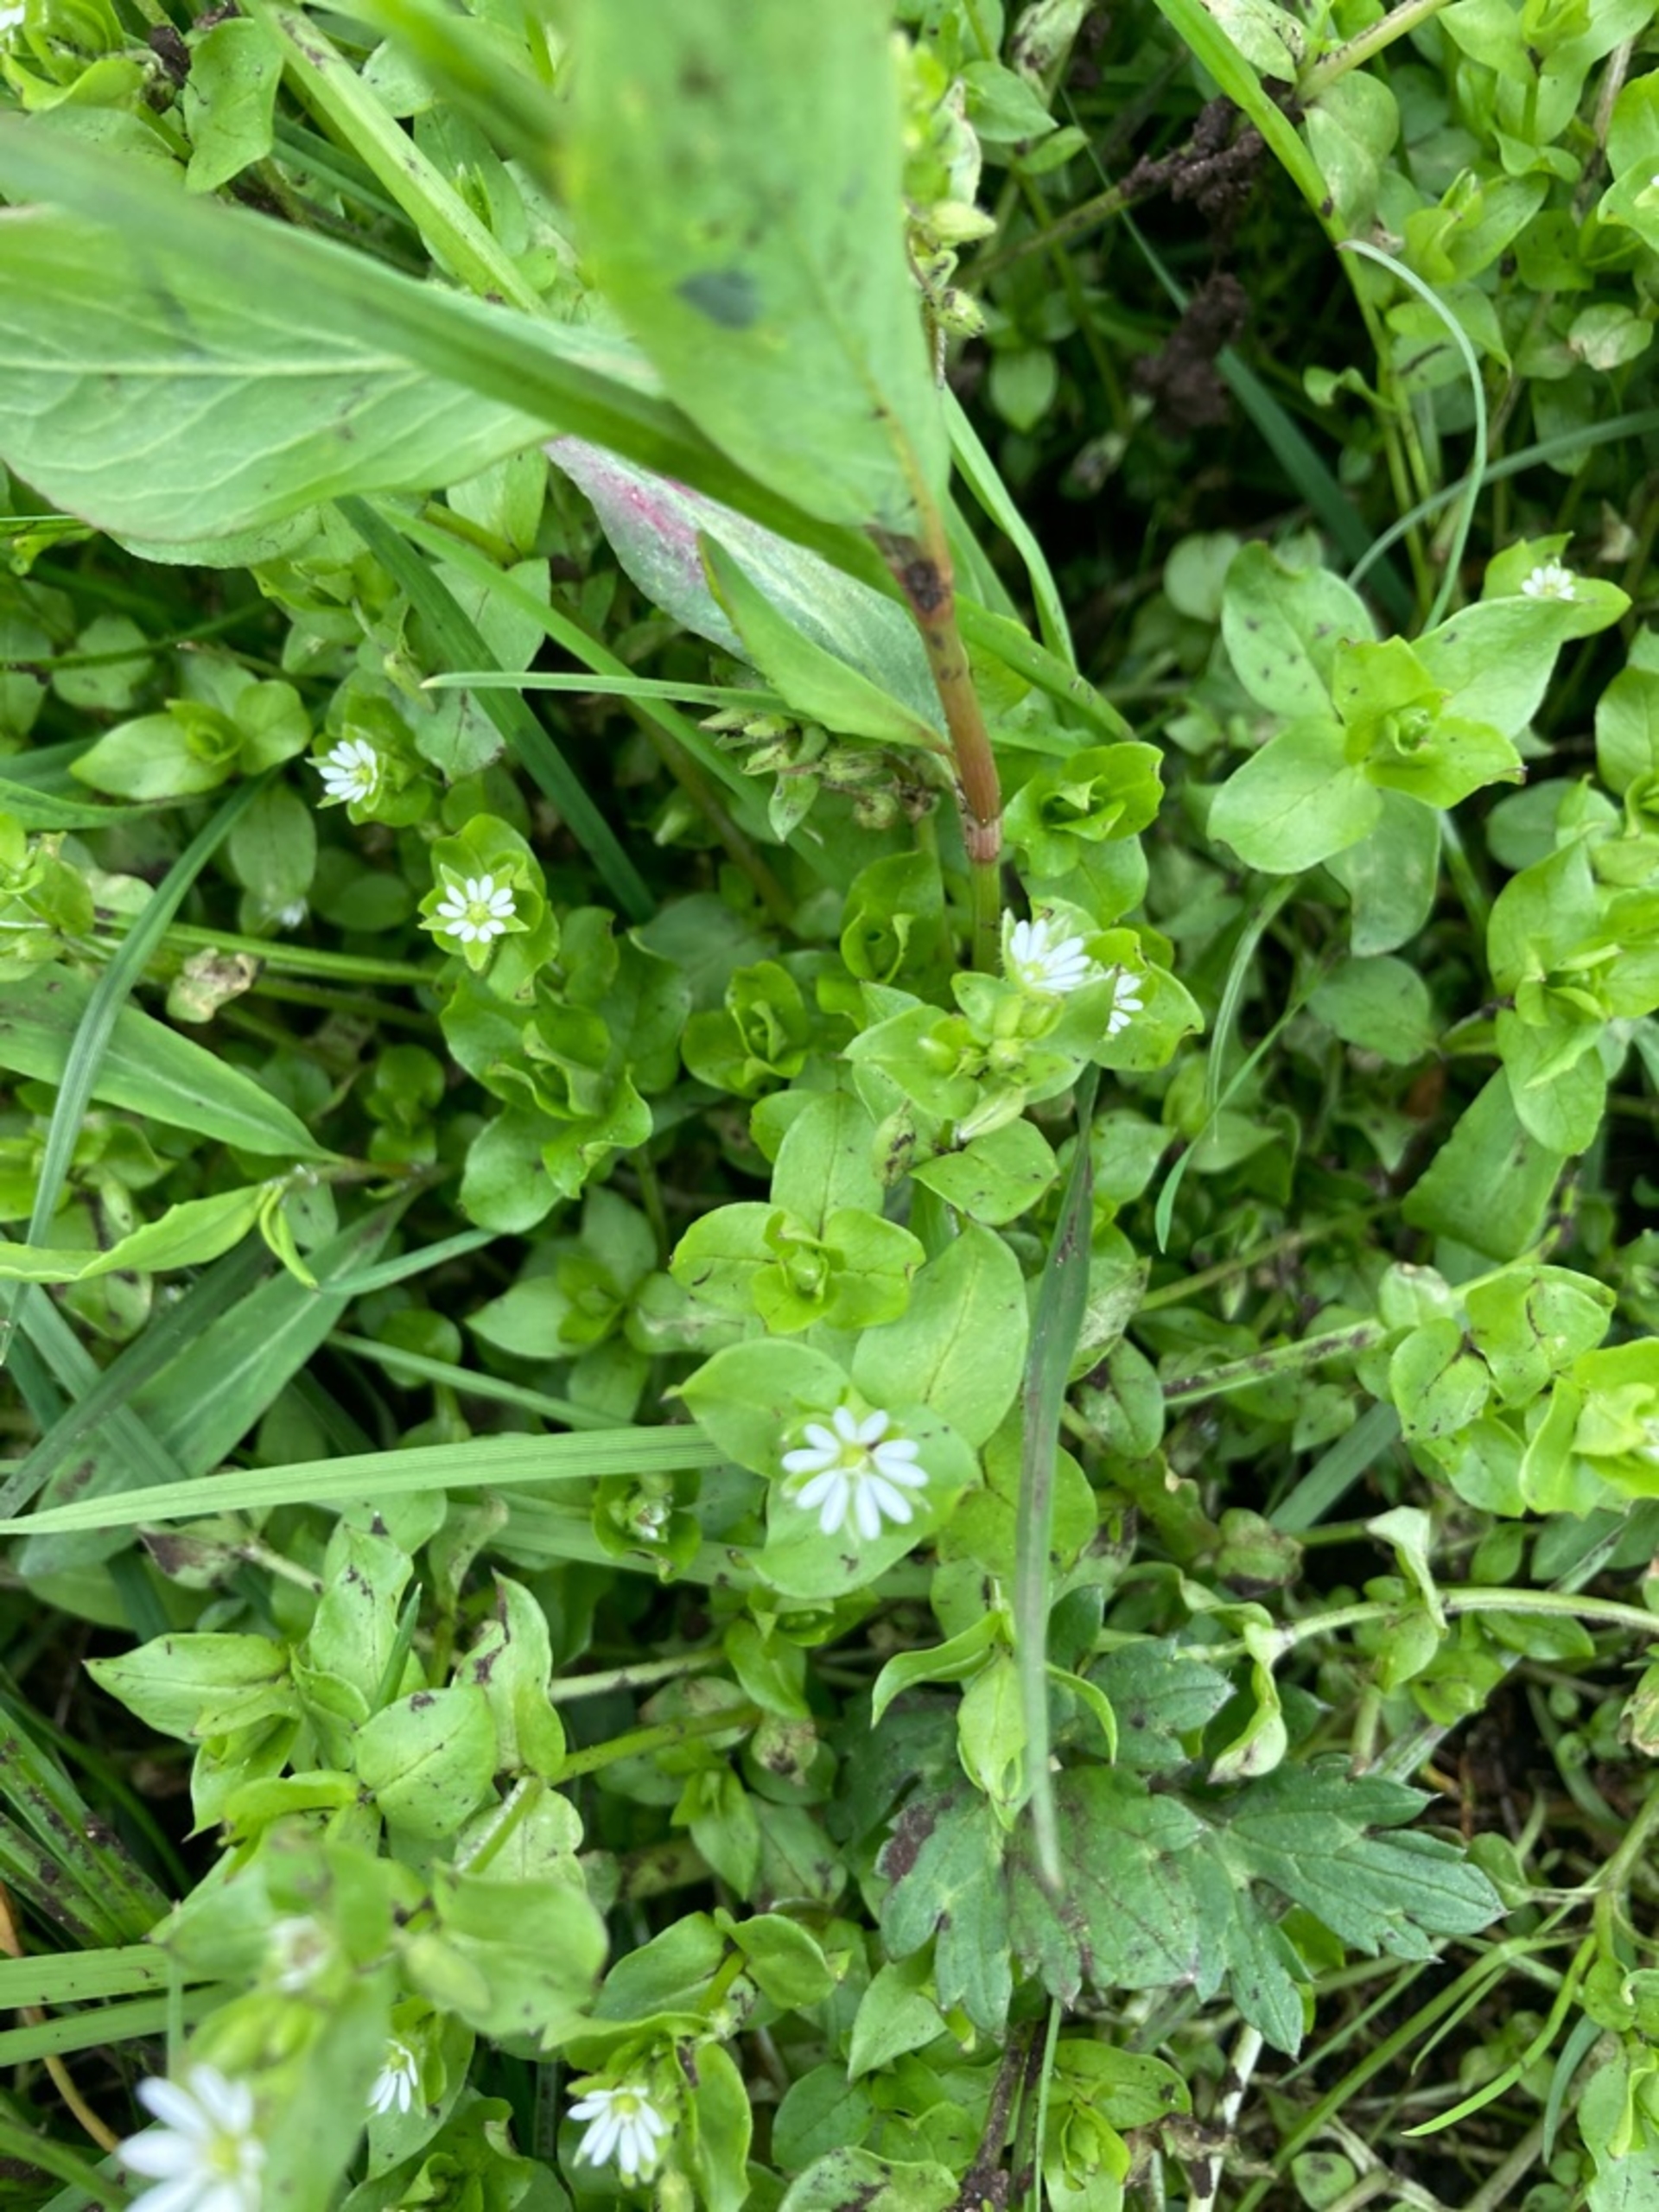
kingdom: Plantae
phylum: Tracheophyta
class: Magnoliopsida
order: Caryophyllales
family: Caryophyllaceae
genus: Stellaria
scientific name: Stellaria media
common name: Almindelig fuglegræs
